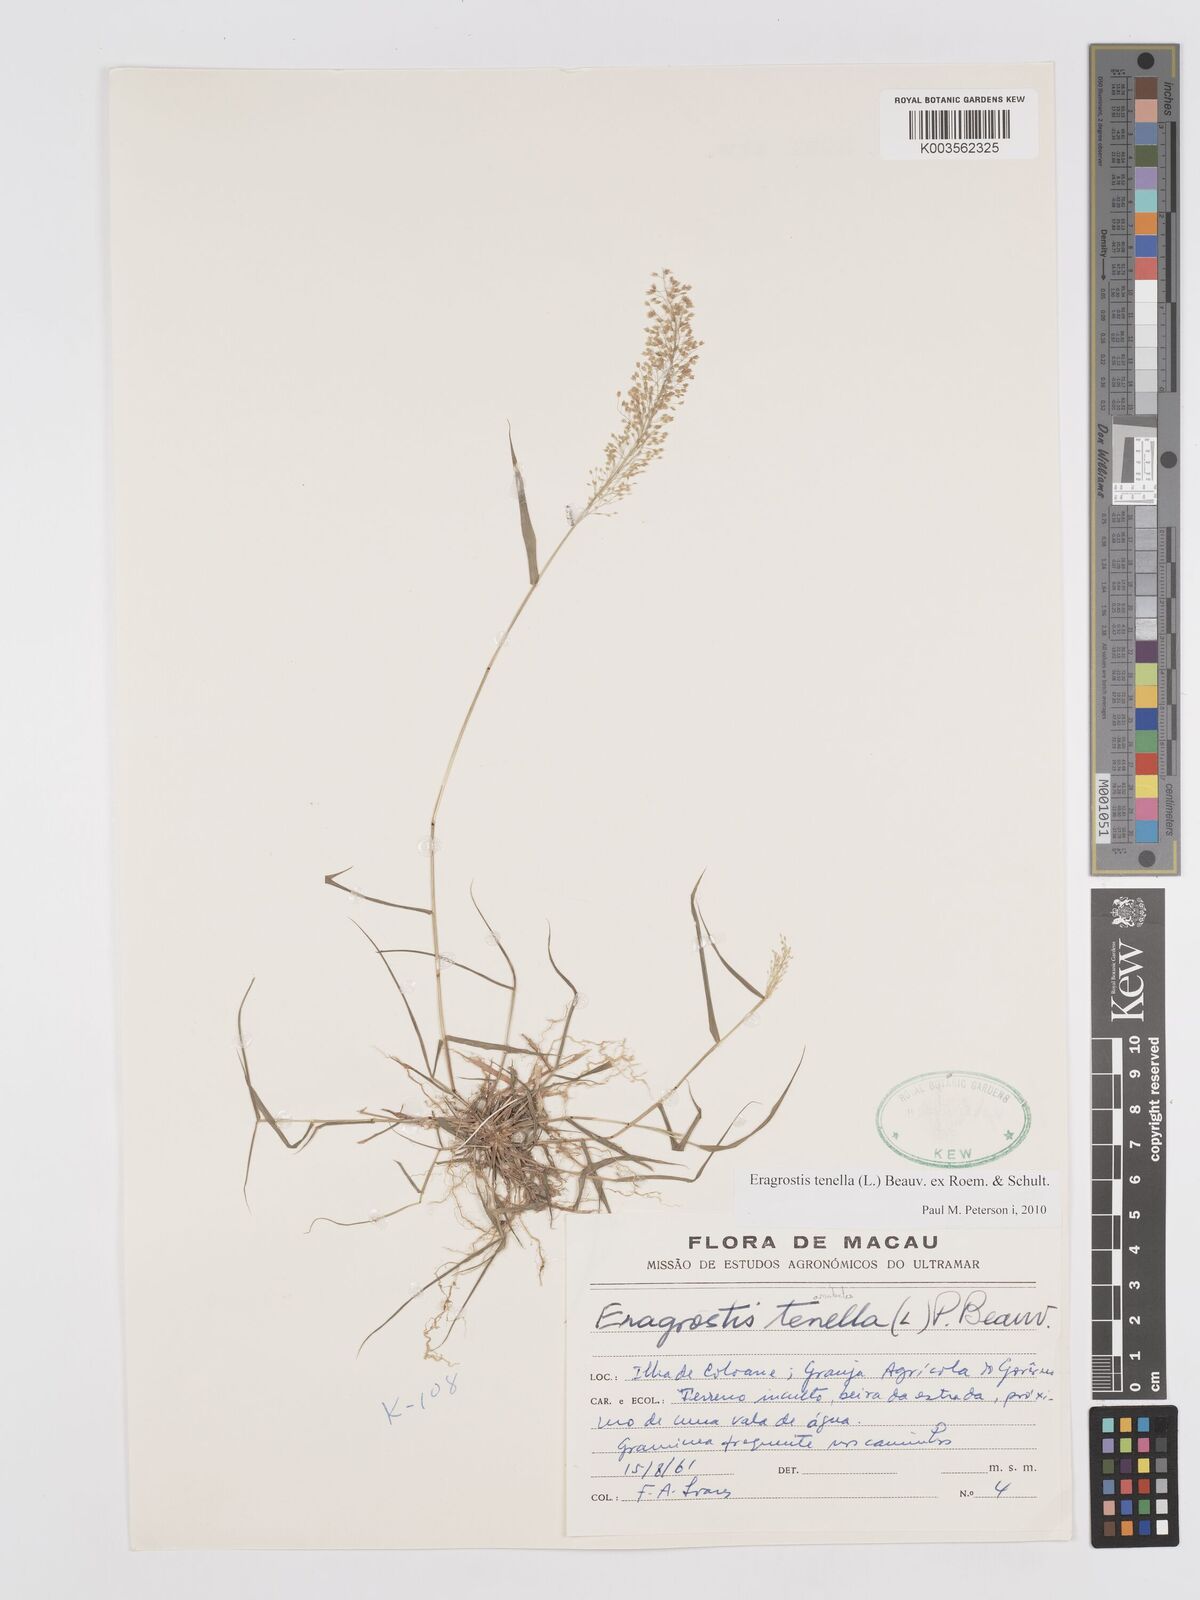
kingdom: Plantae
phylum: Tracheophyta
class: Liliopsida
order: Poales
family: Poaceae
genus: Eragrostis
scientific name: Eragrostis tenella
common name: Japanese lovegrass
